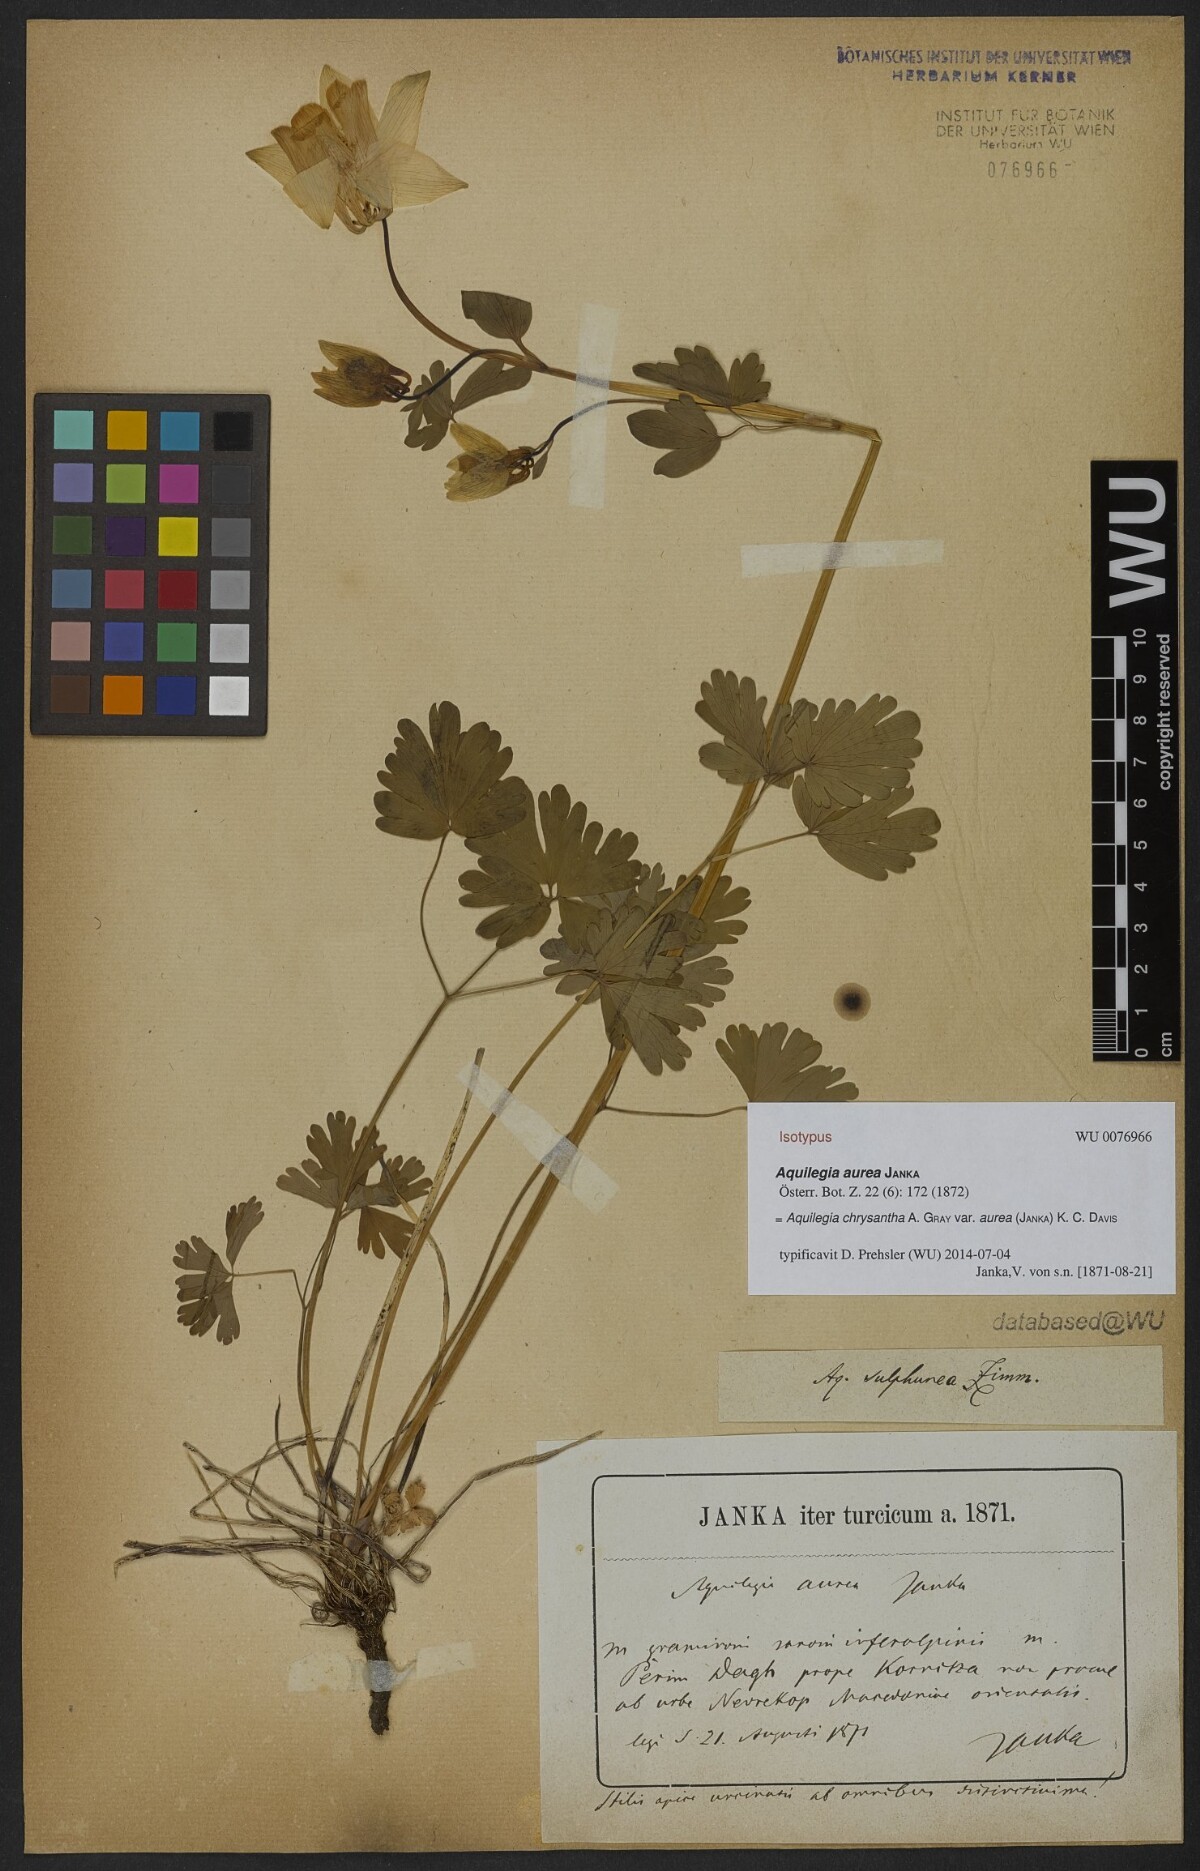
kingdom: Plantae
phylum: Tracheophyta
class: Magnoliopsida
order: Ranunculales
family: Ranunculaceae
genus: Aquilegia
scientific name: Aquilegia aurea
